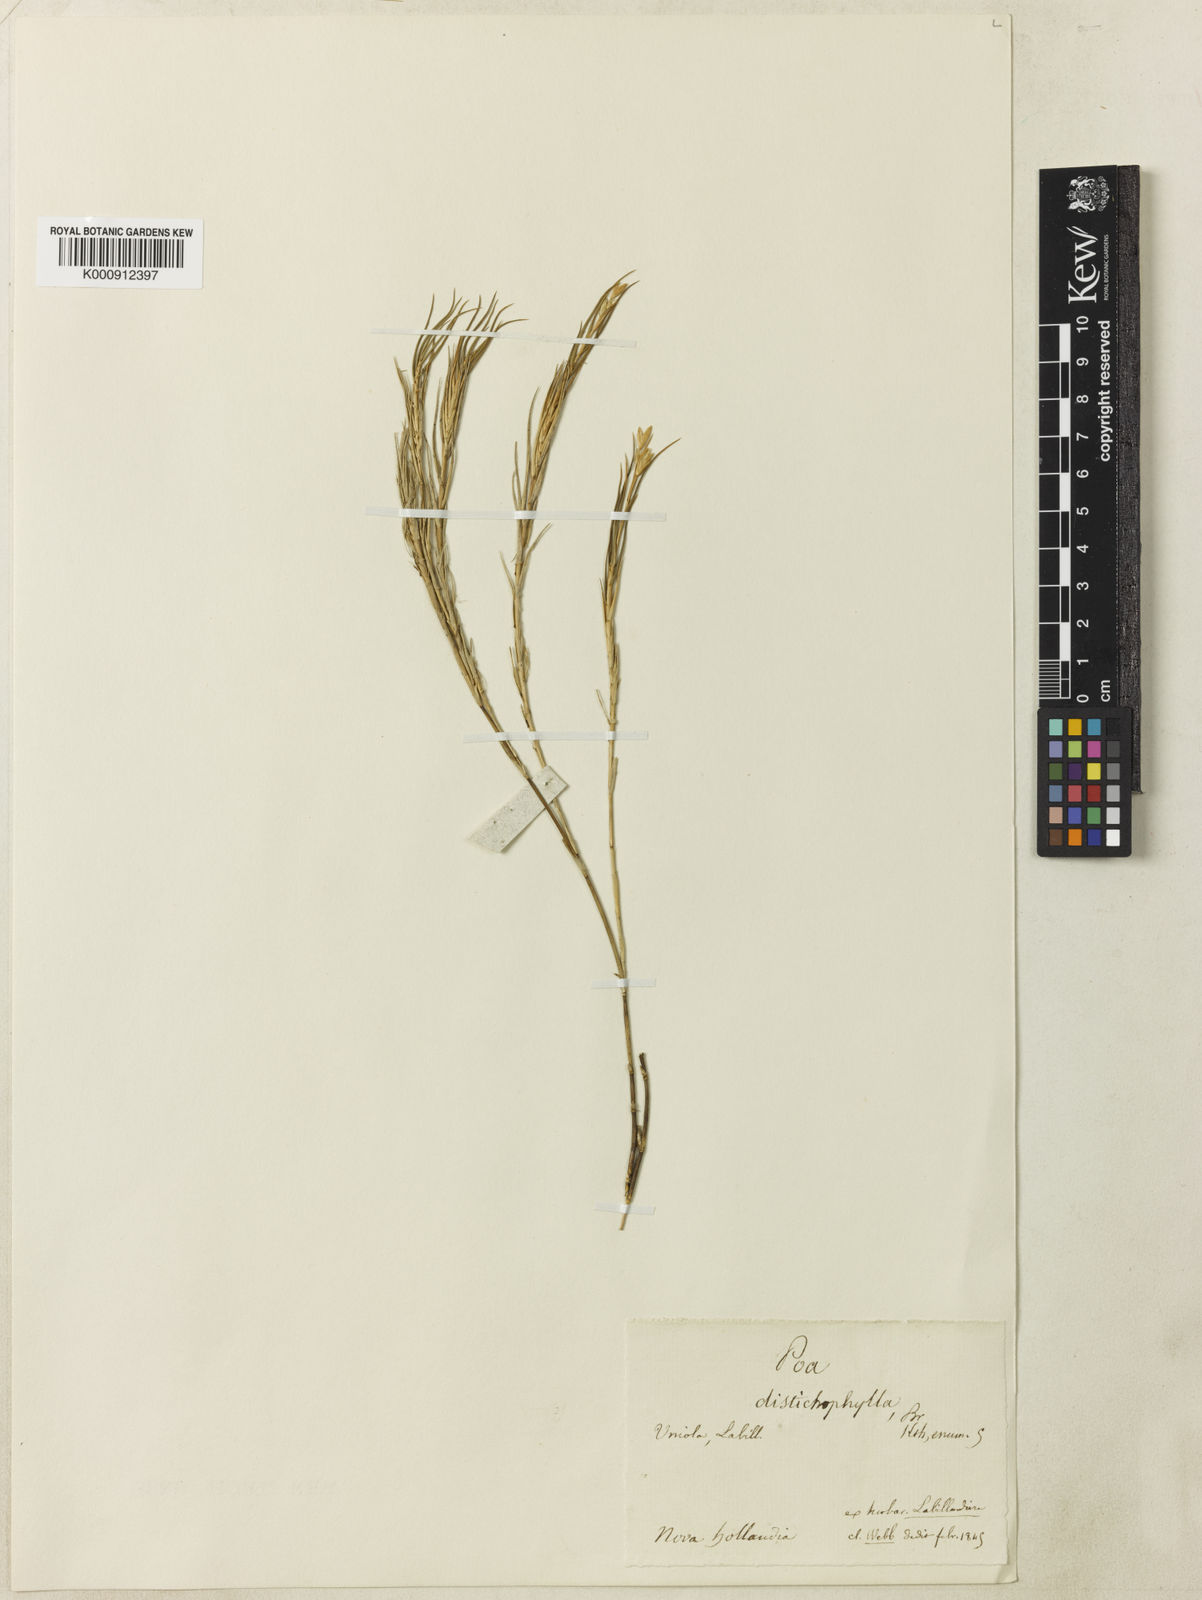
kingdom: Plantae
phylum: Tracheophyta
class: Liliopsida
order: Poales
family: Poaceae
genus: Distichlis
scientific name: Distichlis distichophylla
